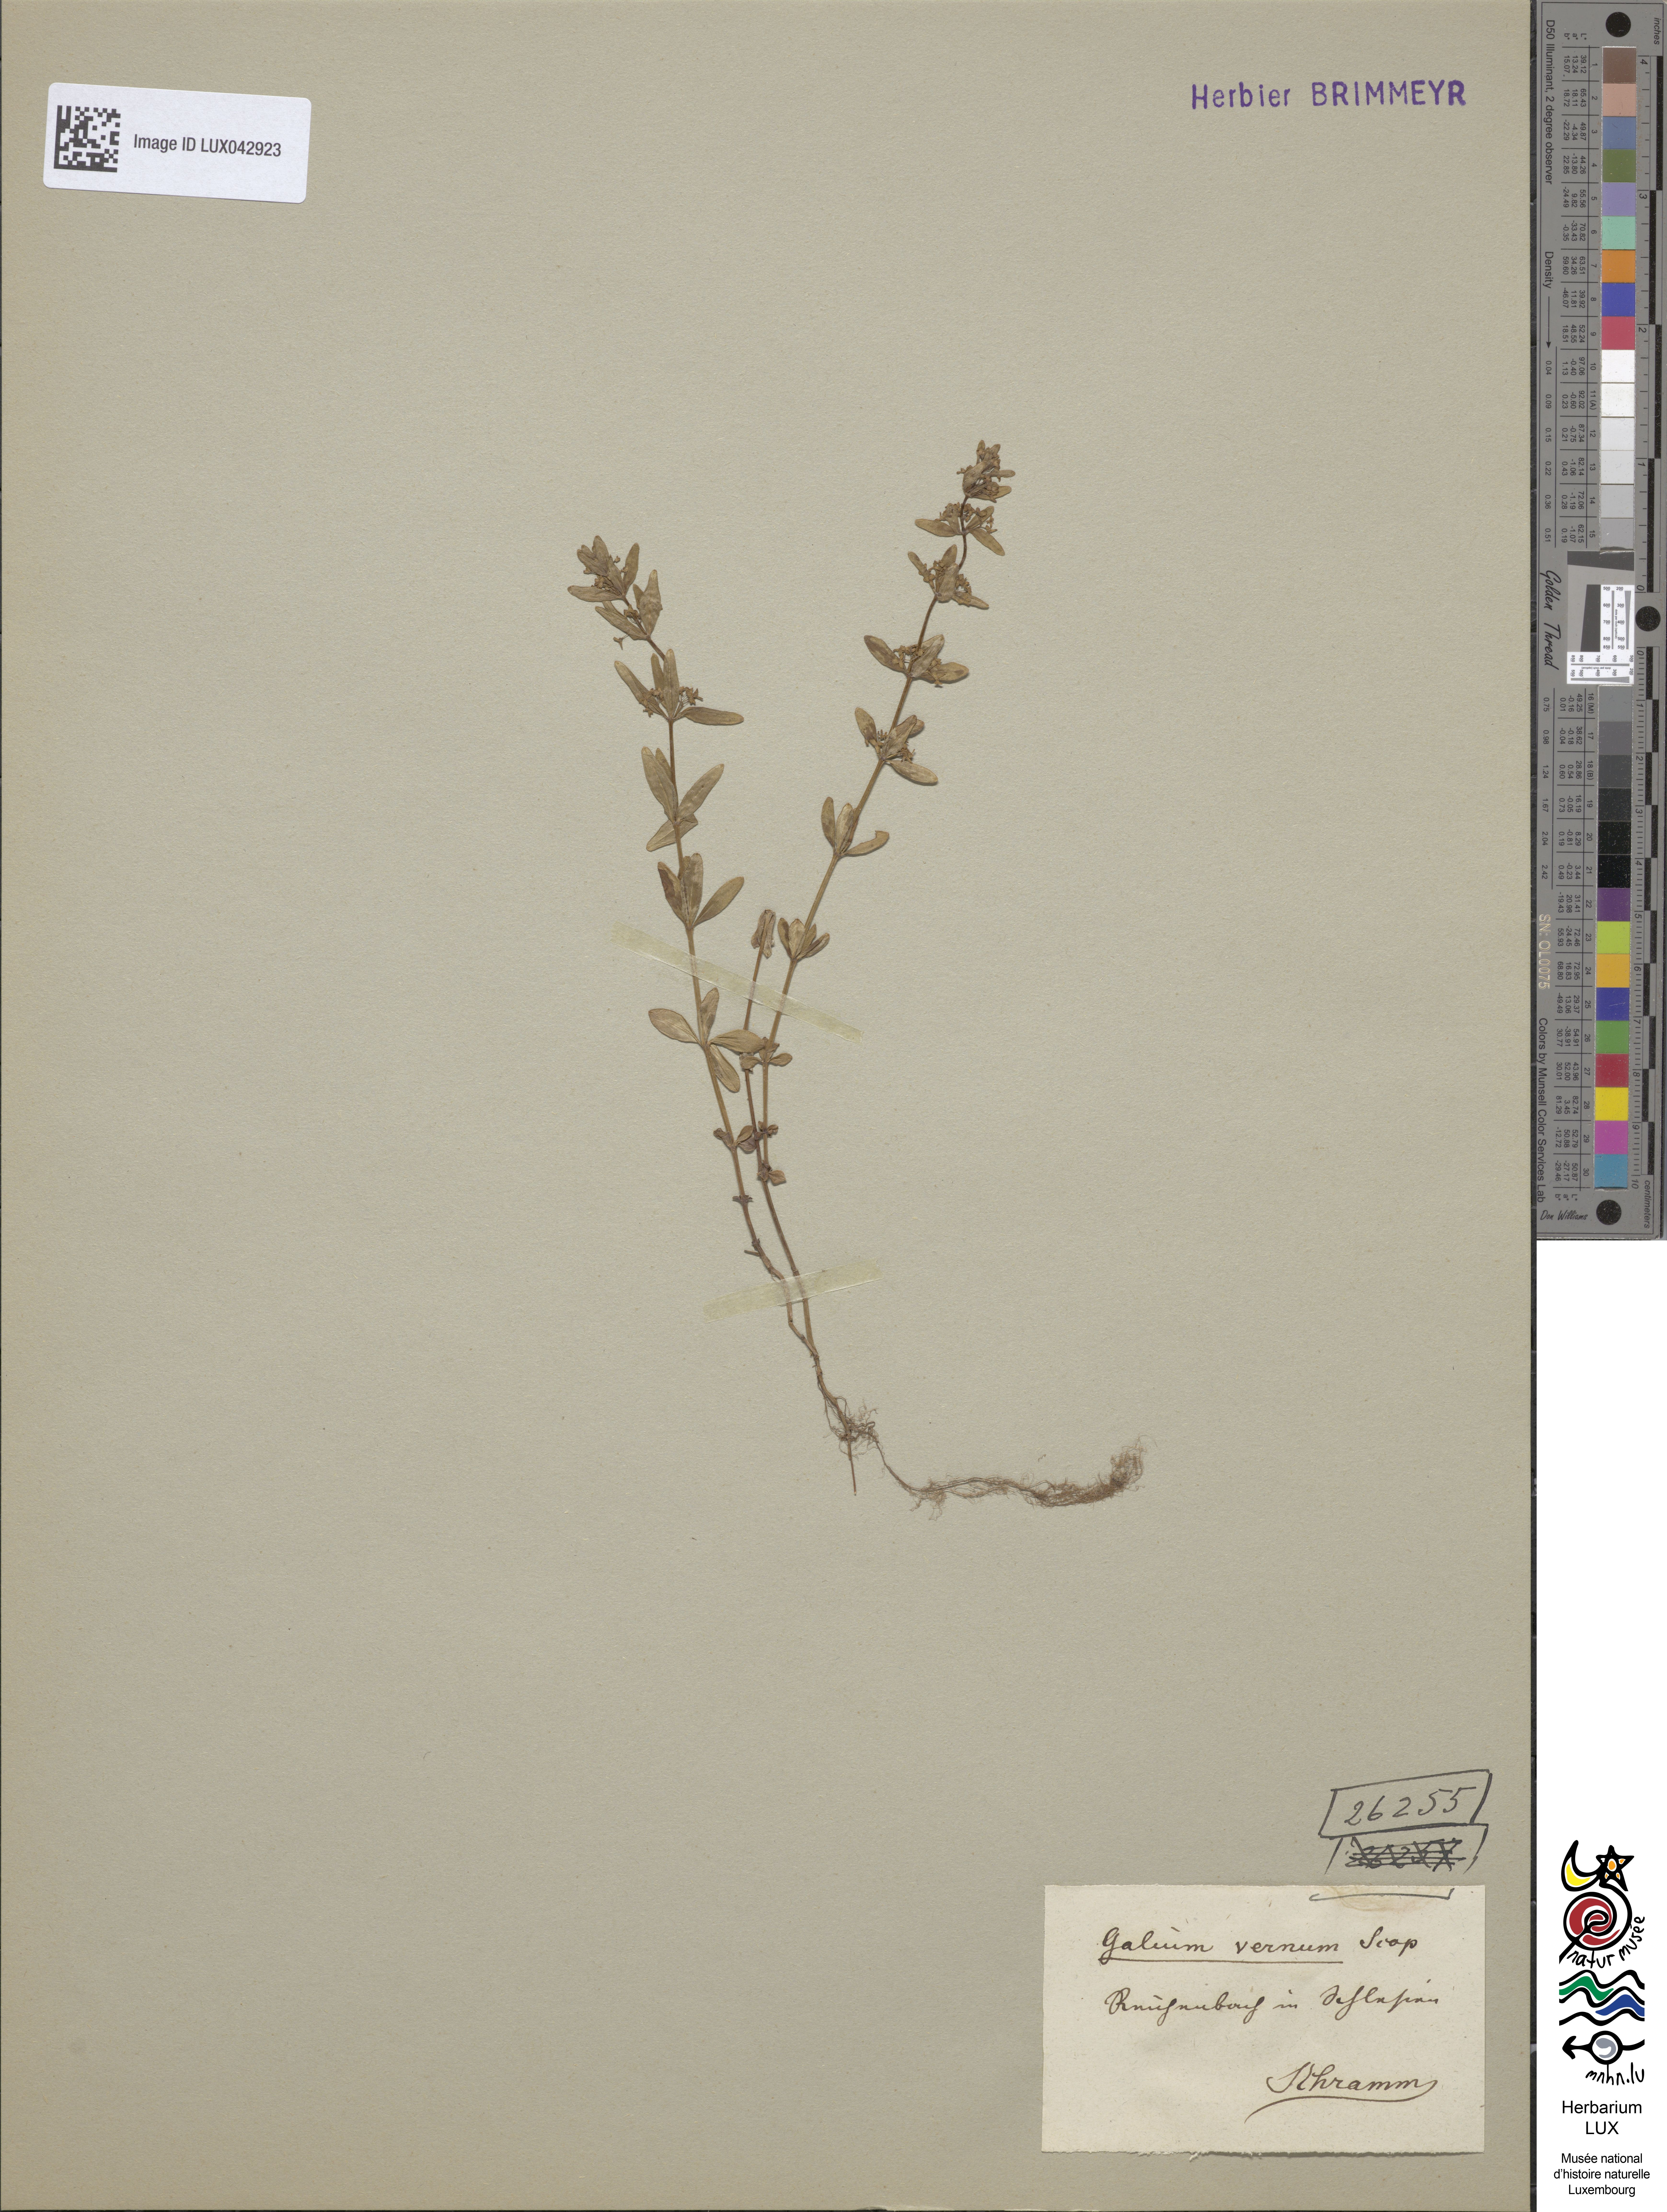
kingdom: Plantae
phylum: Tracheophyta
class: Magnoliopsida
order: Gentianales
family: Rubiaceae
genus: Cruciata
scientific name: Cruciata glabra
